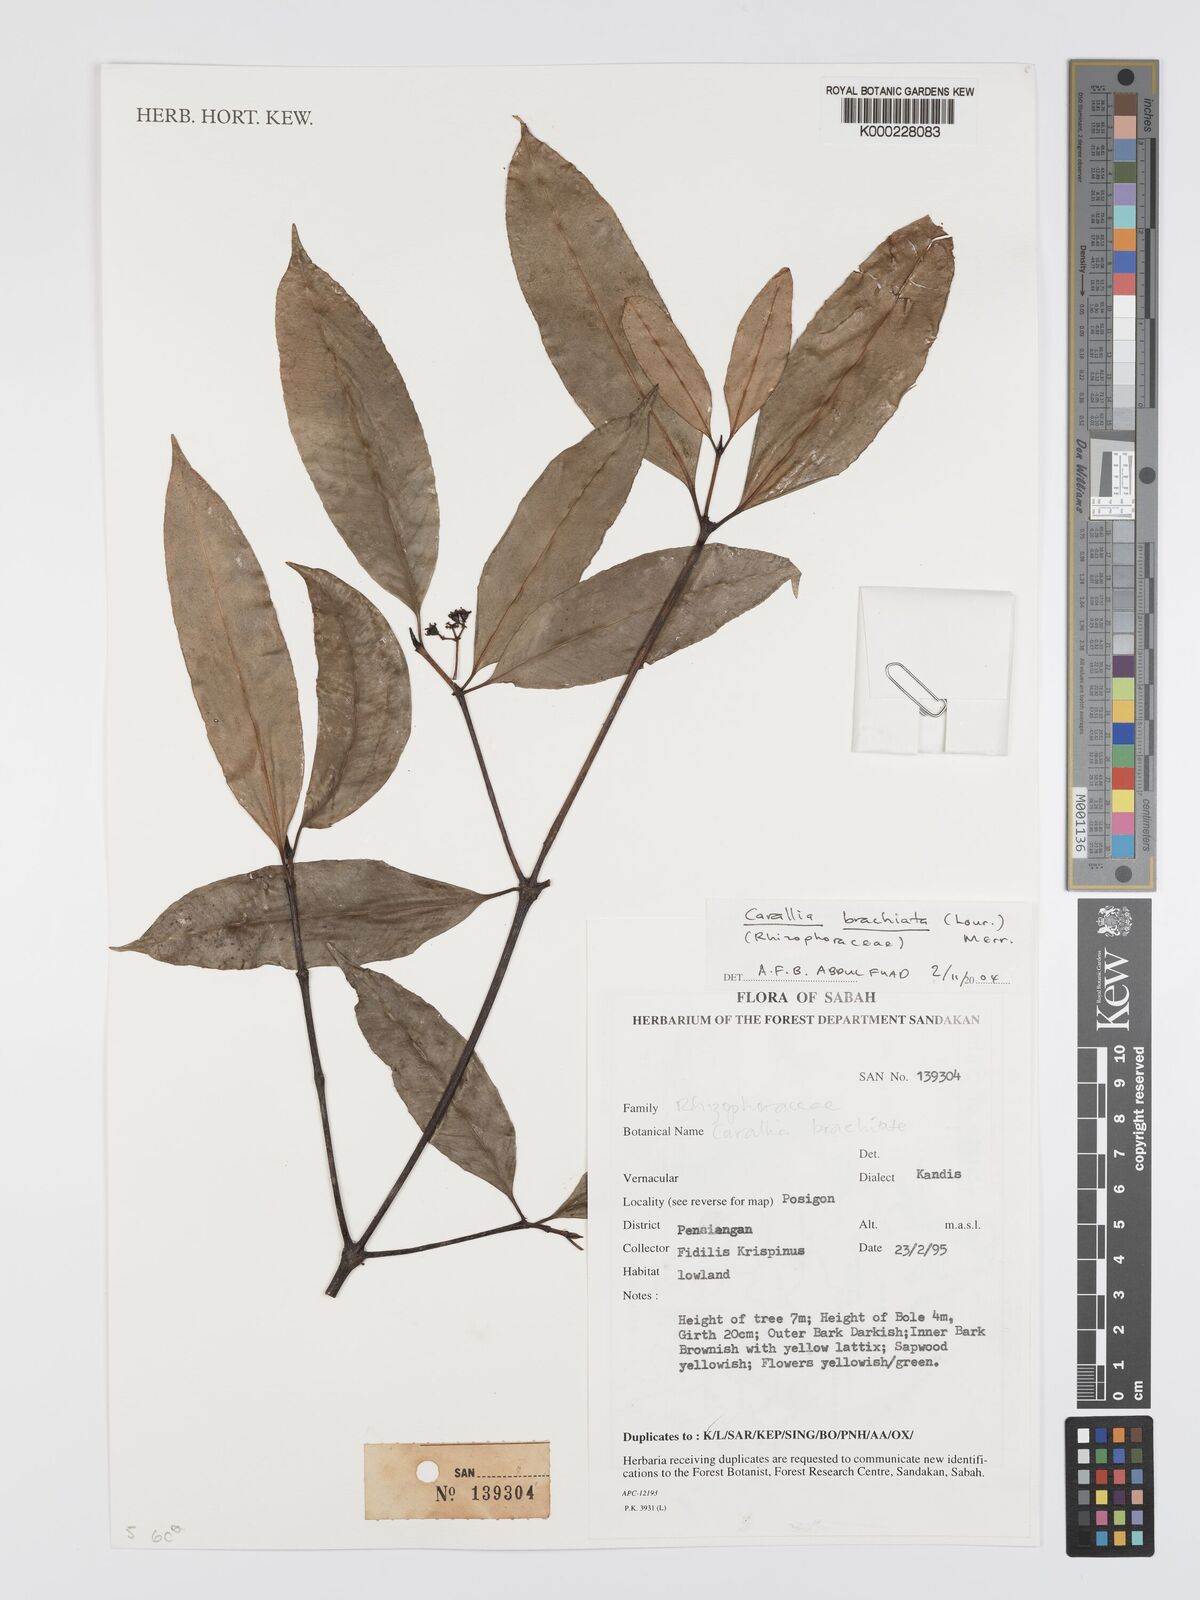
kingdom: Plantae
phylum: Tracheophyta
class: Magnoliopsida
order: Malpighiales
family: Rhizophoraceae
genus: Carallia
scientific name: Carallia brachiata
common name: Carallawood
